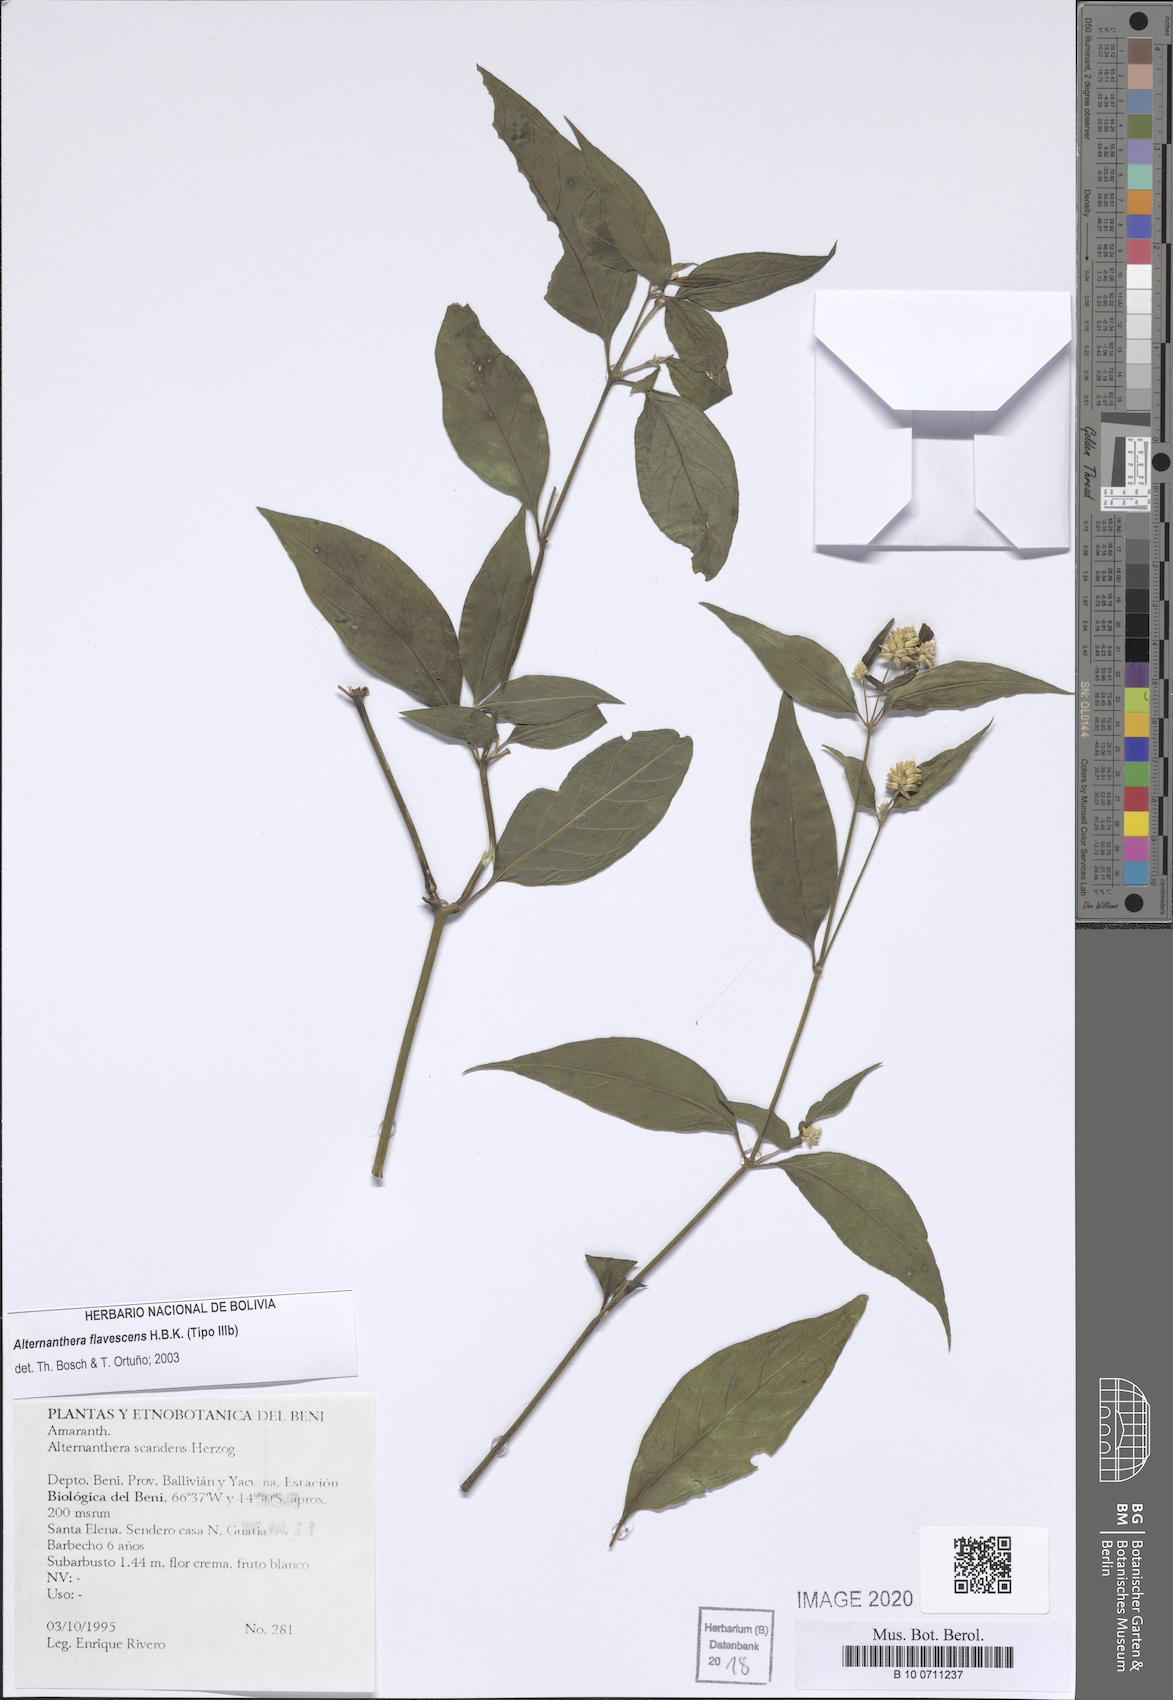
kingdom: Plantae
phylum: Tracheophyta
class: Magnoliopsida
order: Caryophyllales
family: Amaranthaceae
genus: Alternanthera
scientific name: Alternanthera flavescens
